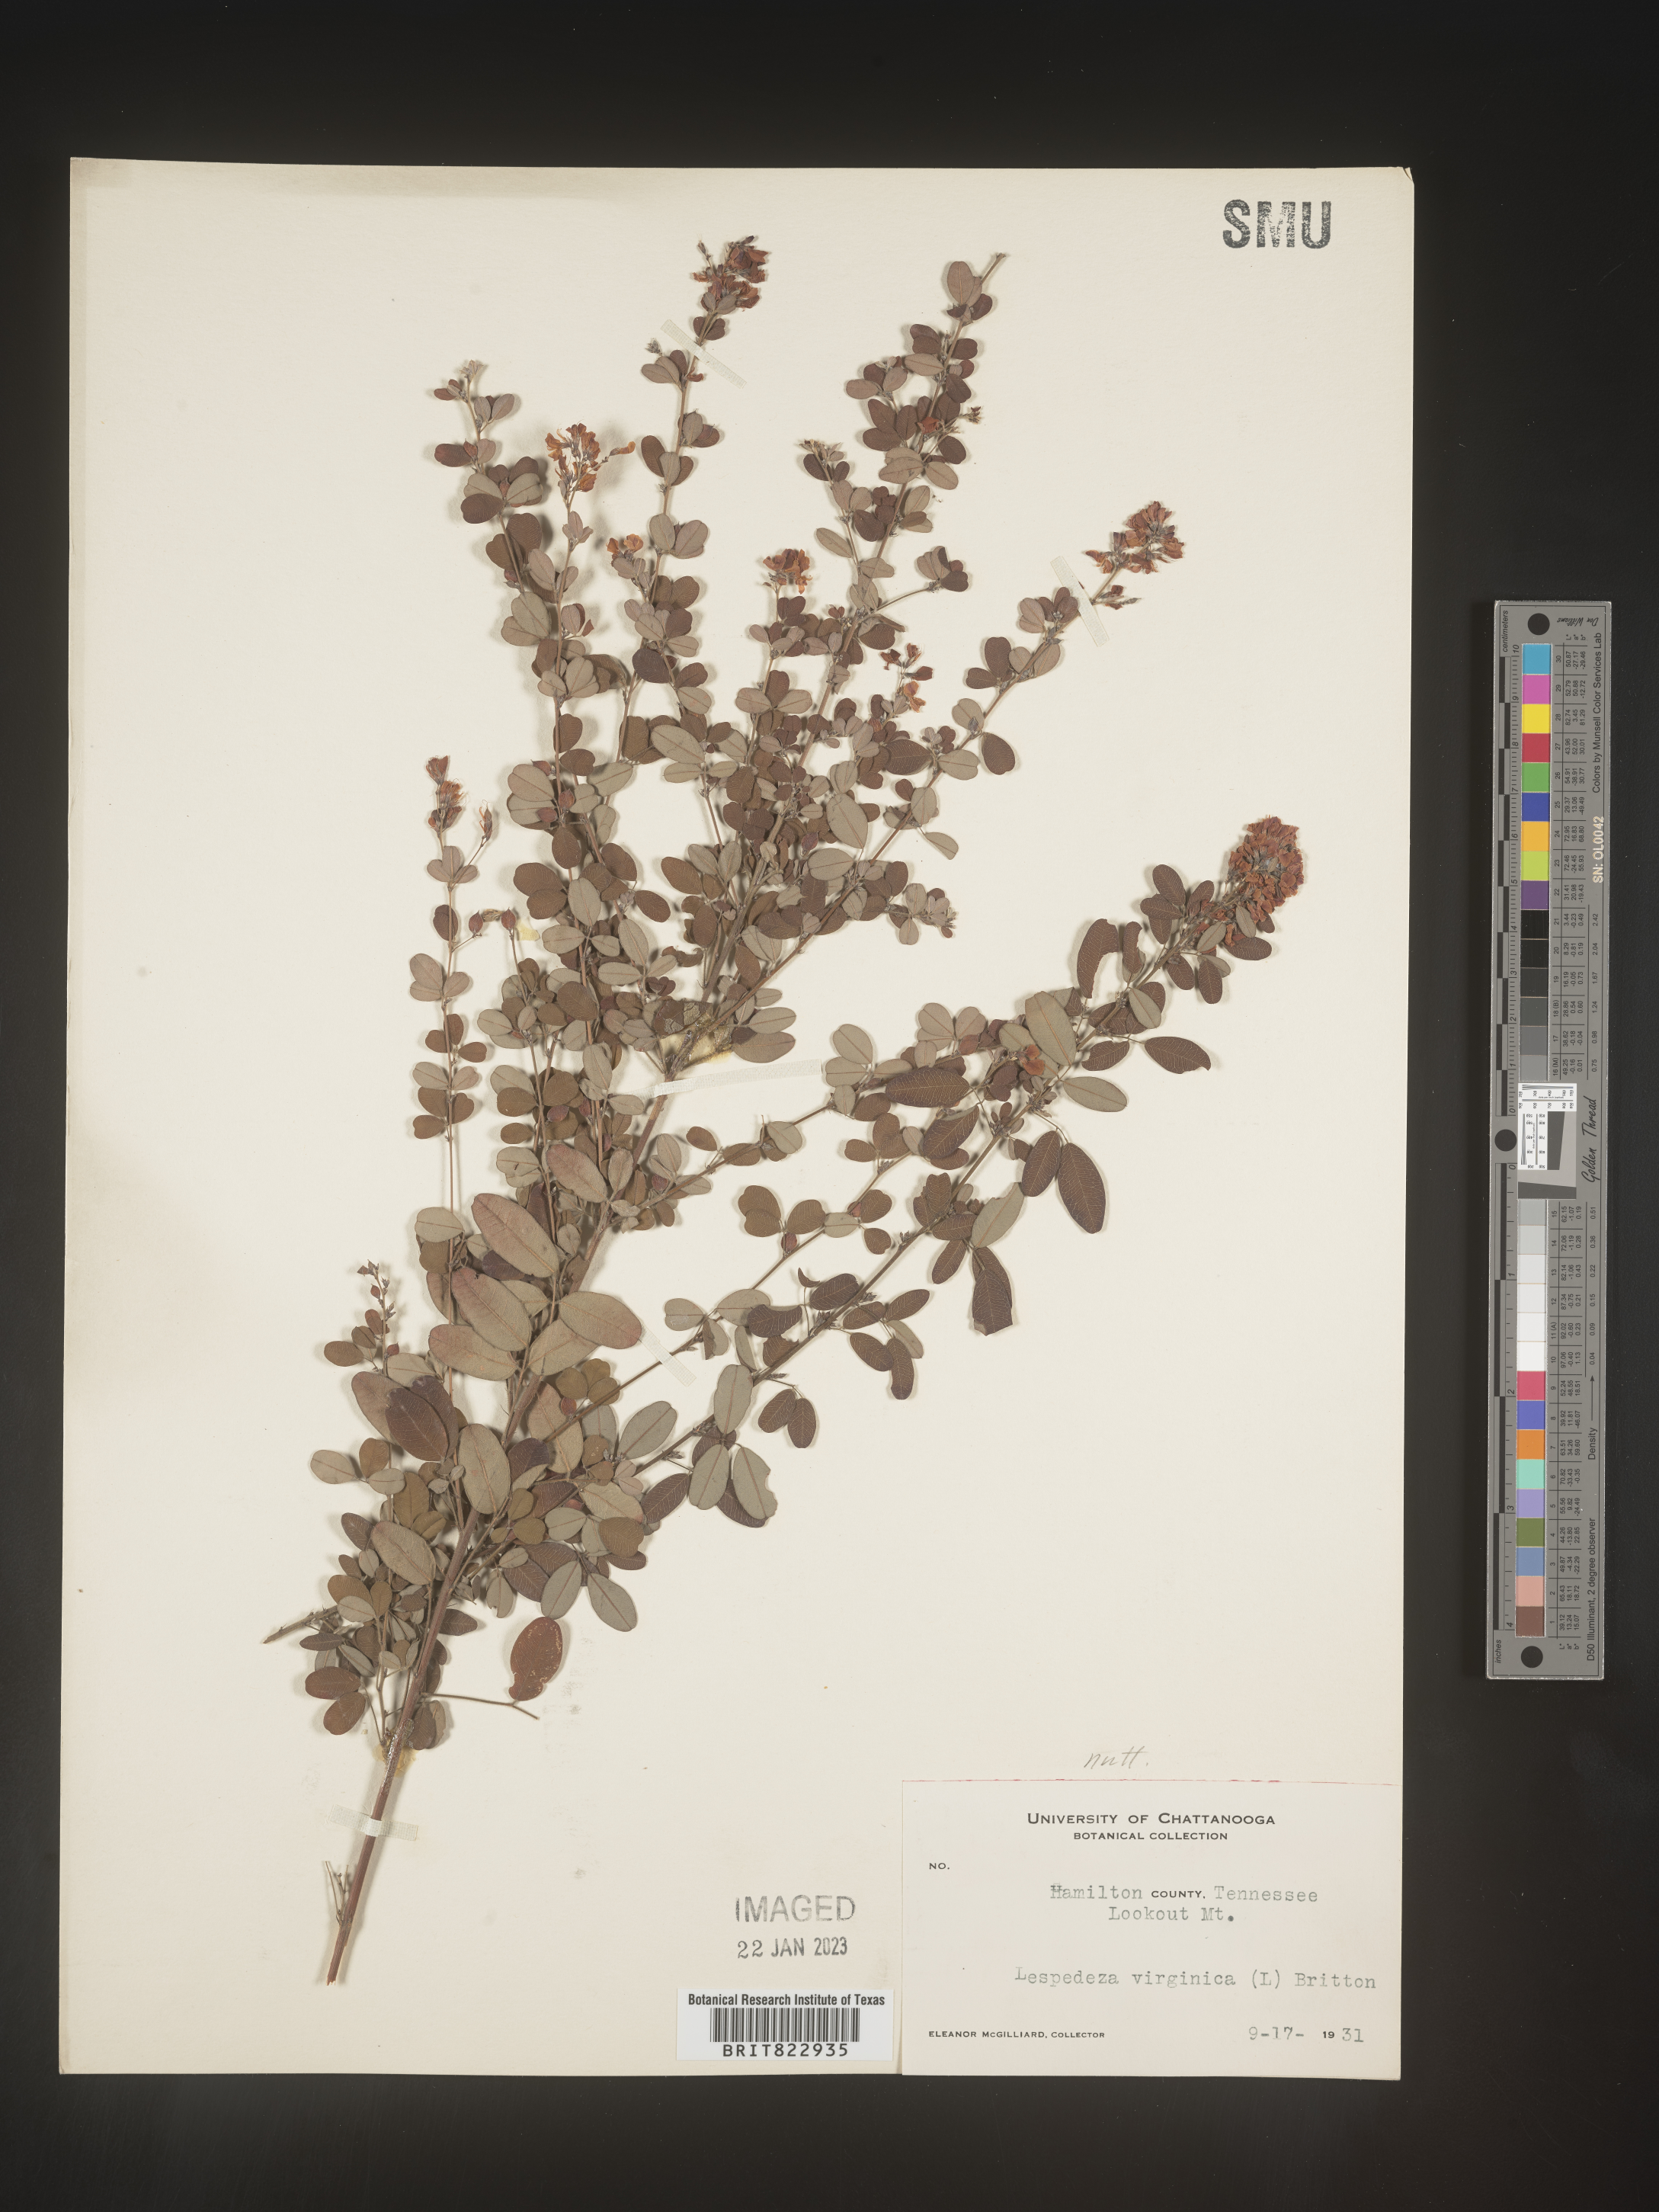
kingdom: Plantae
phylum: Tracheophyta
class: Magnoliopsida
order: Fabales
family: Fabaceae
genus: Lespedeza
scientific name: Lespedeza
